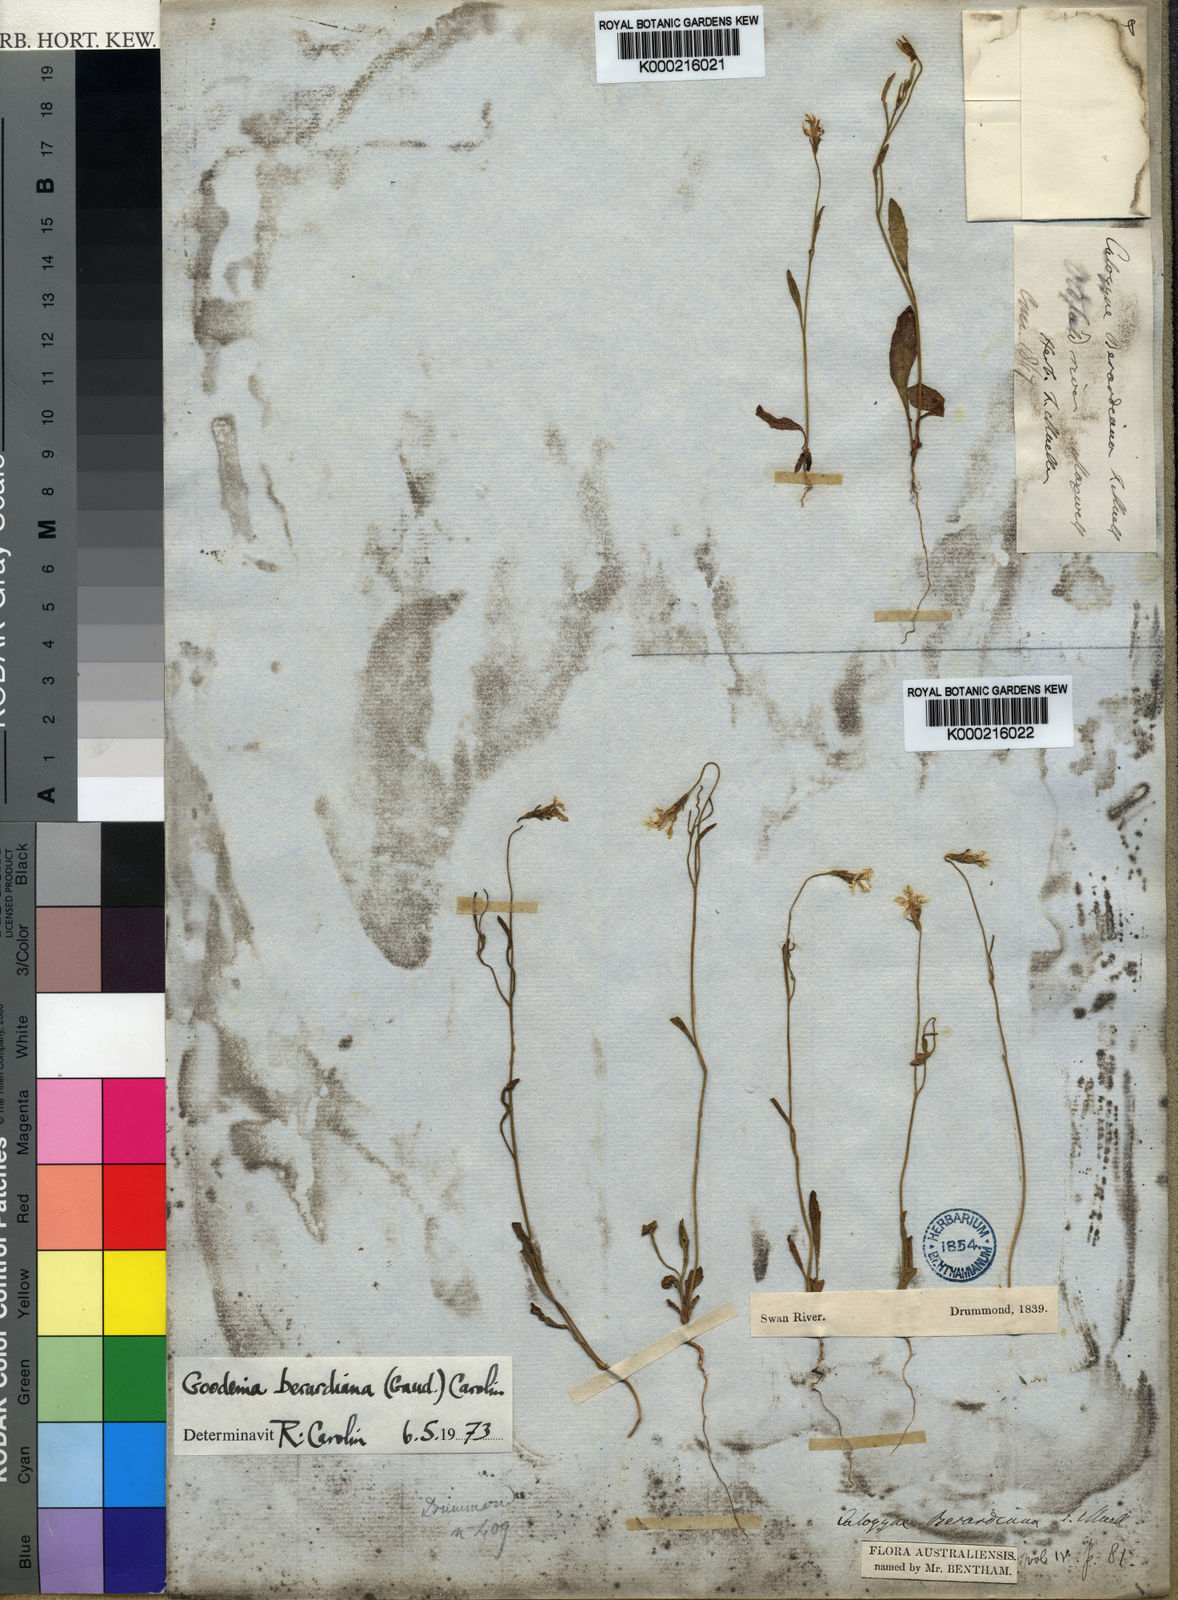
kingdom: Plantae
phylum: Tracheophyta
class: Magnoliopsida
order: Asterales
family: Goodeniaceae
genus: Goodenia
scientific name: Goodenia berardiana
